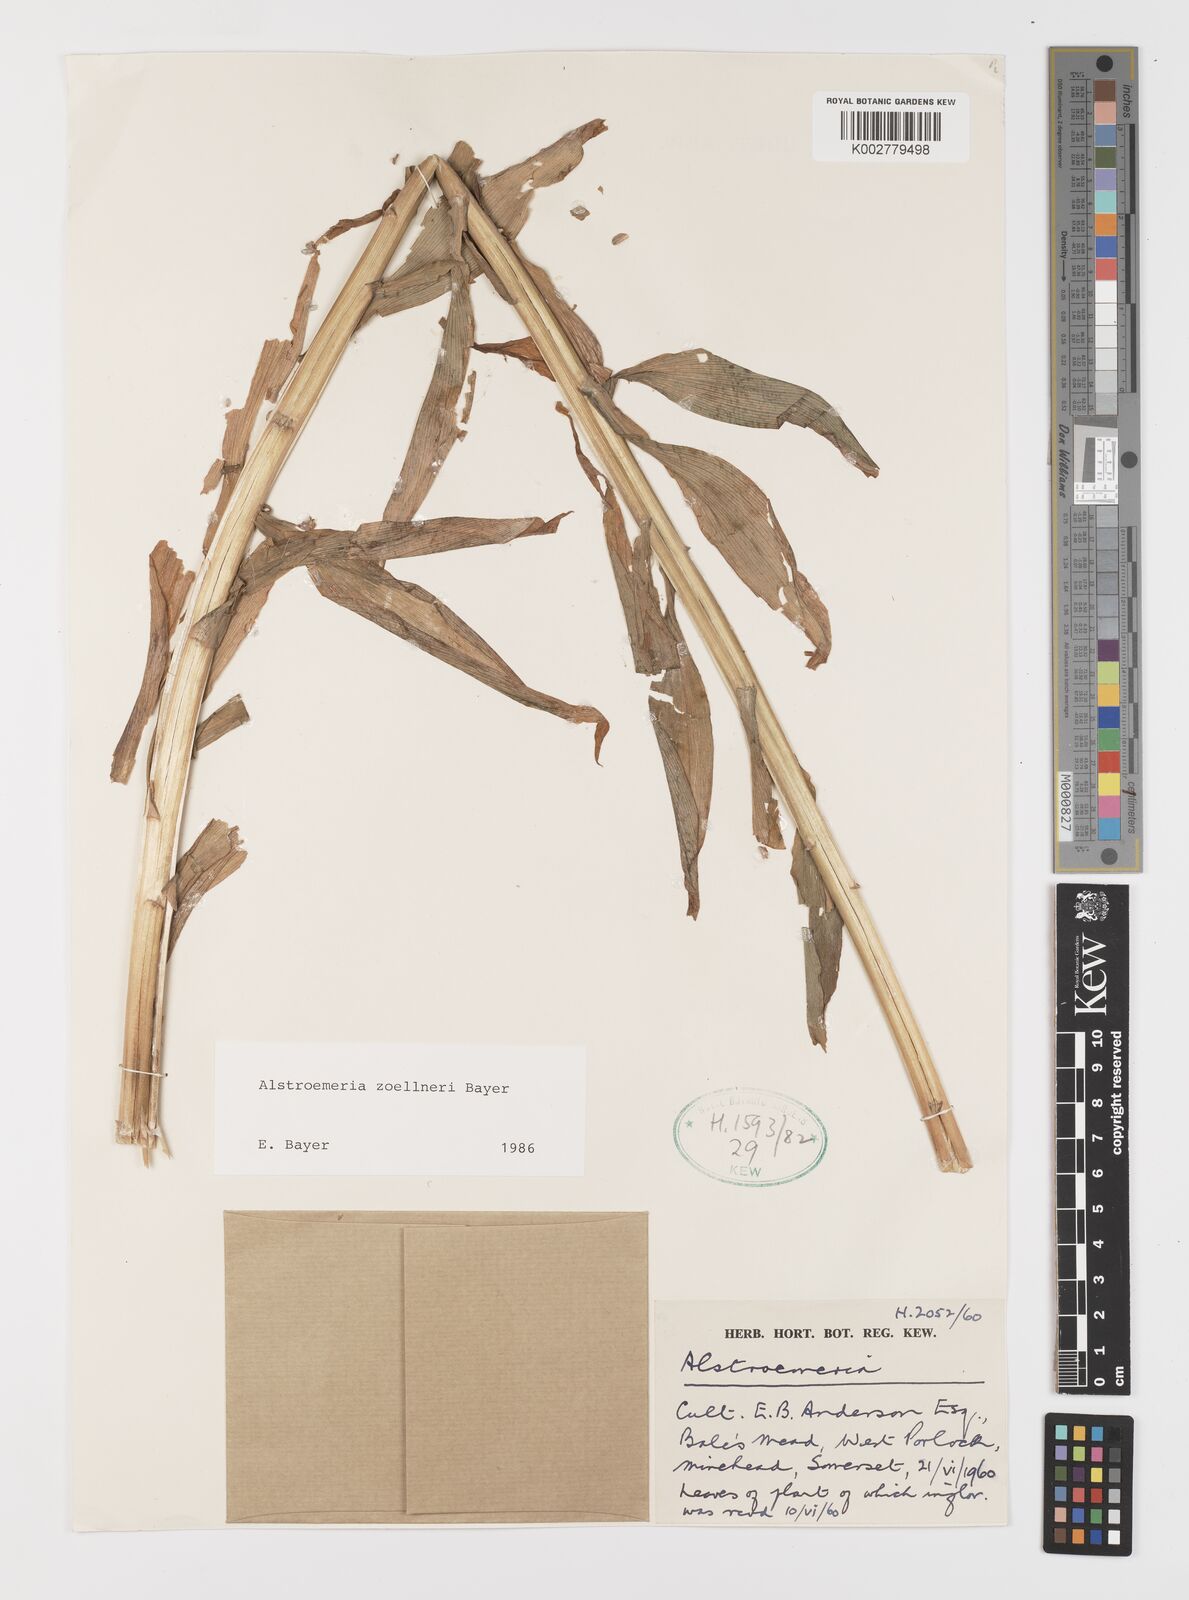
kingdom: Plantae
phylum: Tracheophyta
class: Liliopsida
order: Liliales
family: Alstroemeriaceae
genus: Alstroemeria
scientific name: Alstroemeria zoellneri
